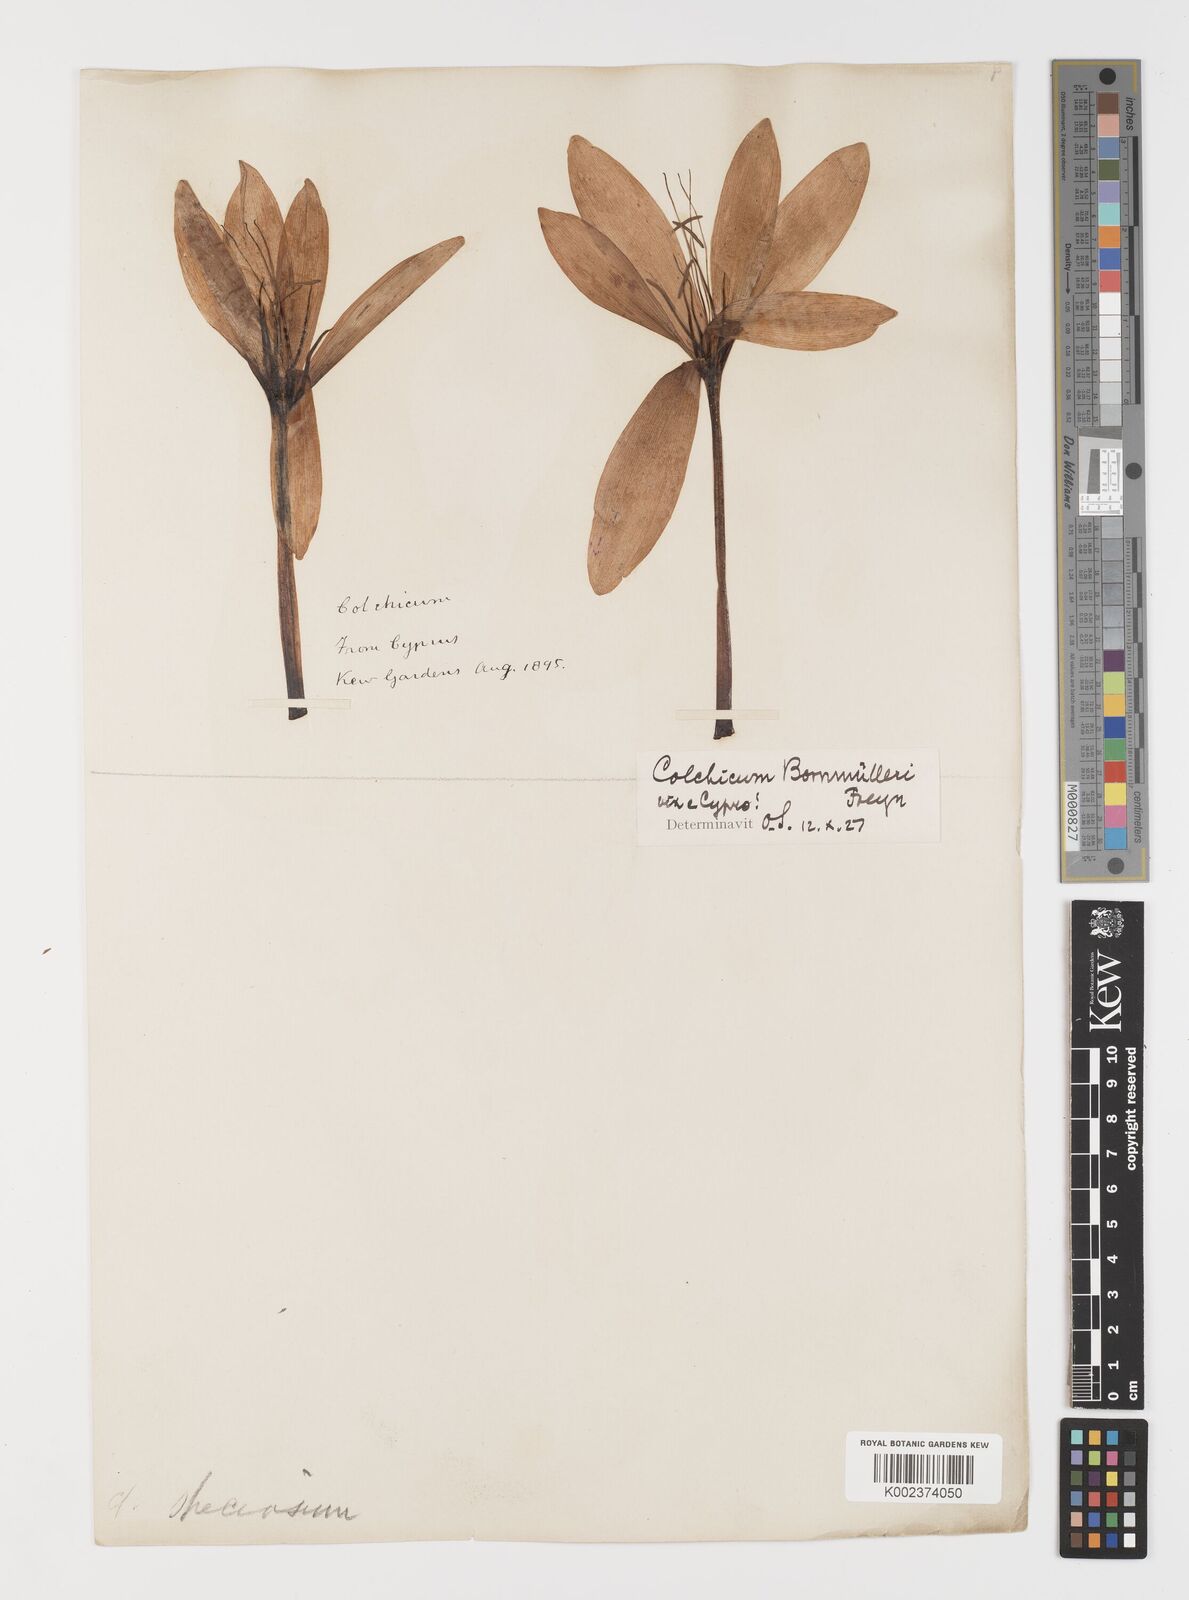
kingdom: Plantae
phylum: Tracheophyta
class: Liliopsida
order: Liliales
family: Colchicaceae
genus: Colchicum
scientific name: Colchicum speciosum
